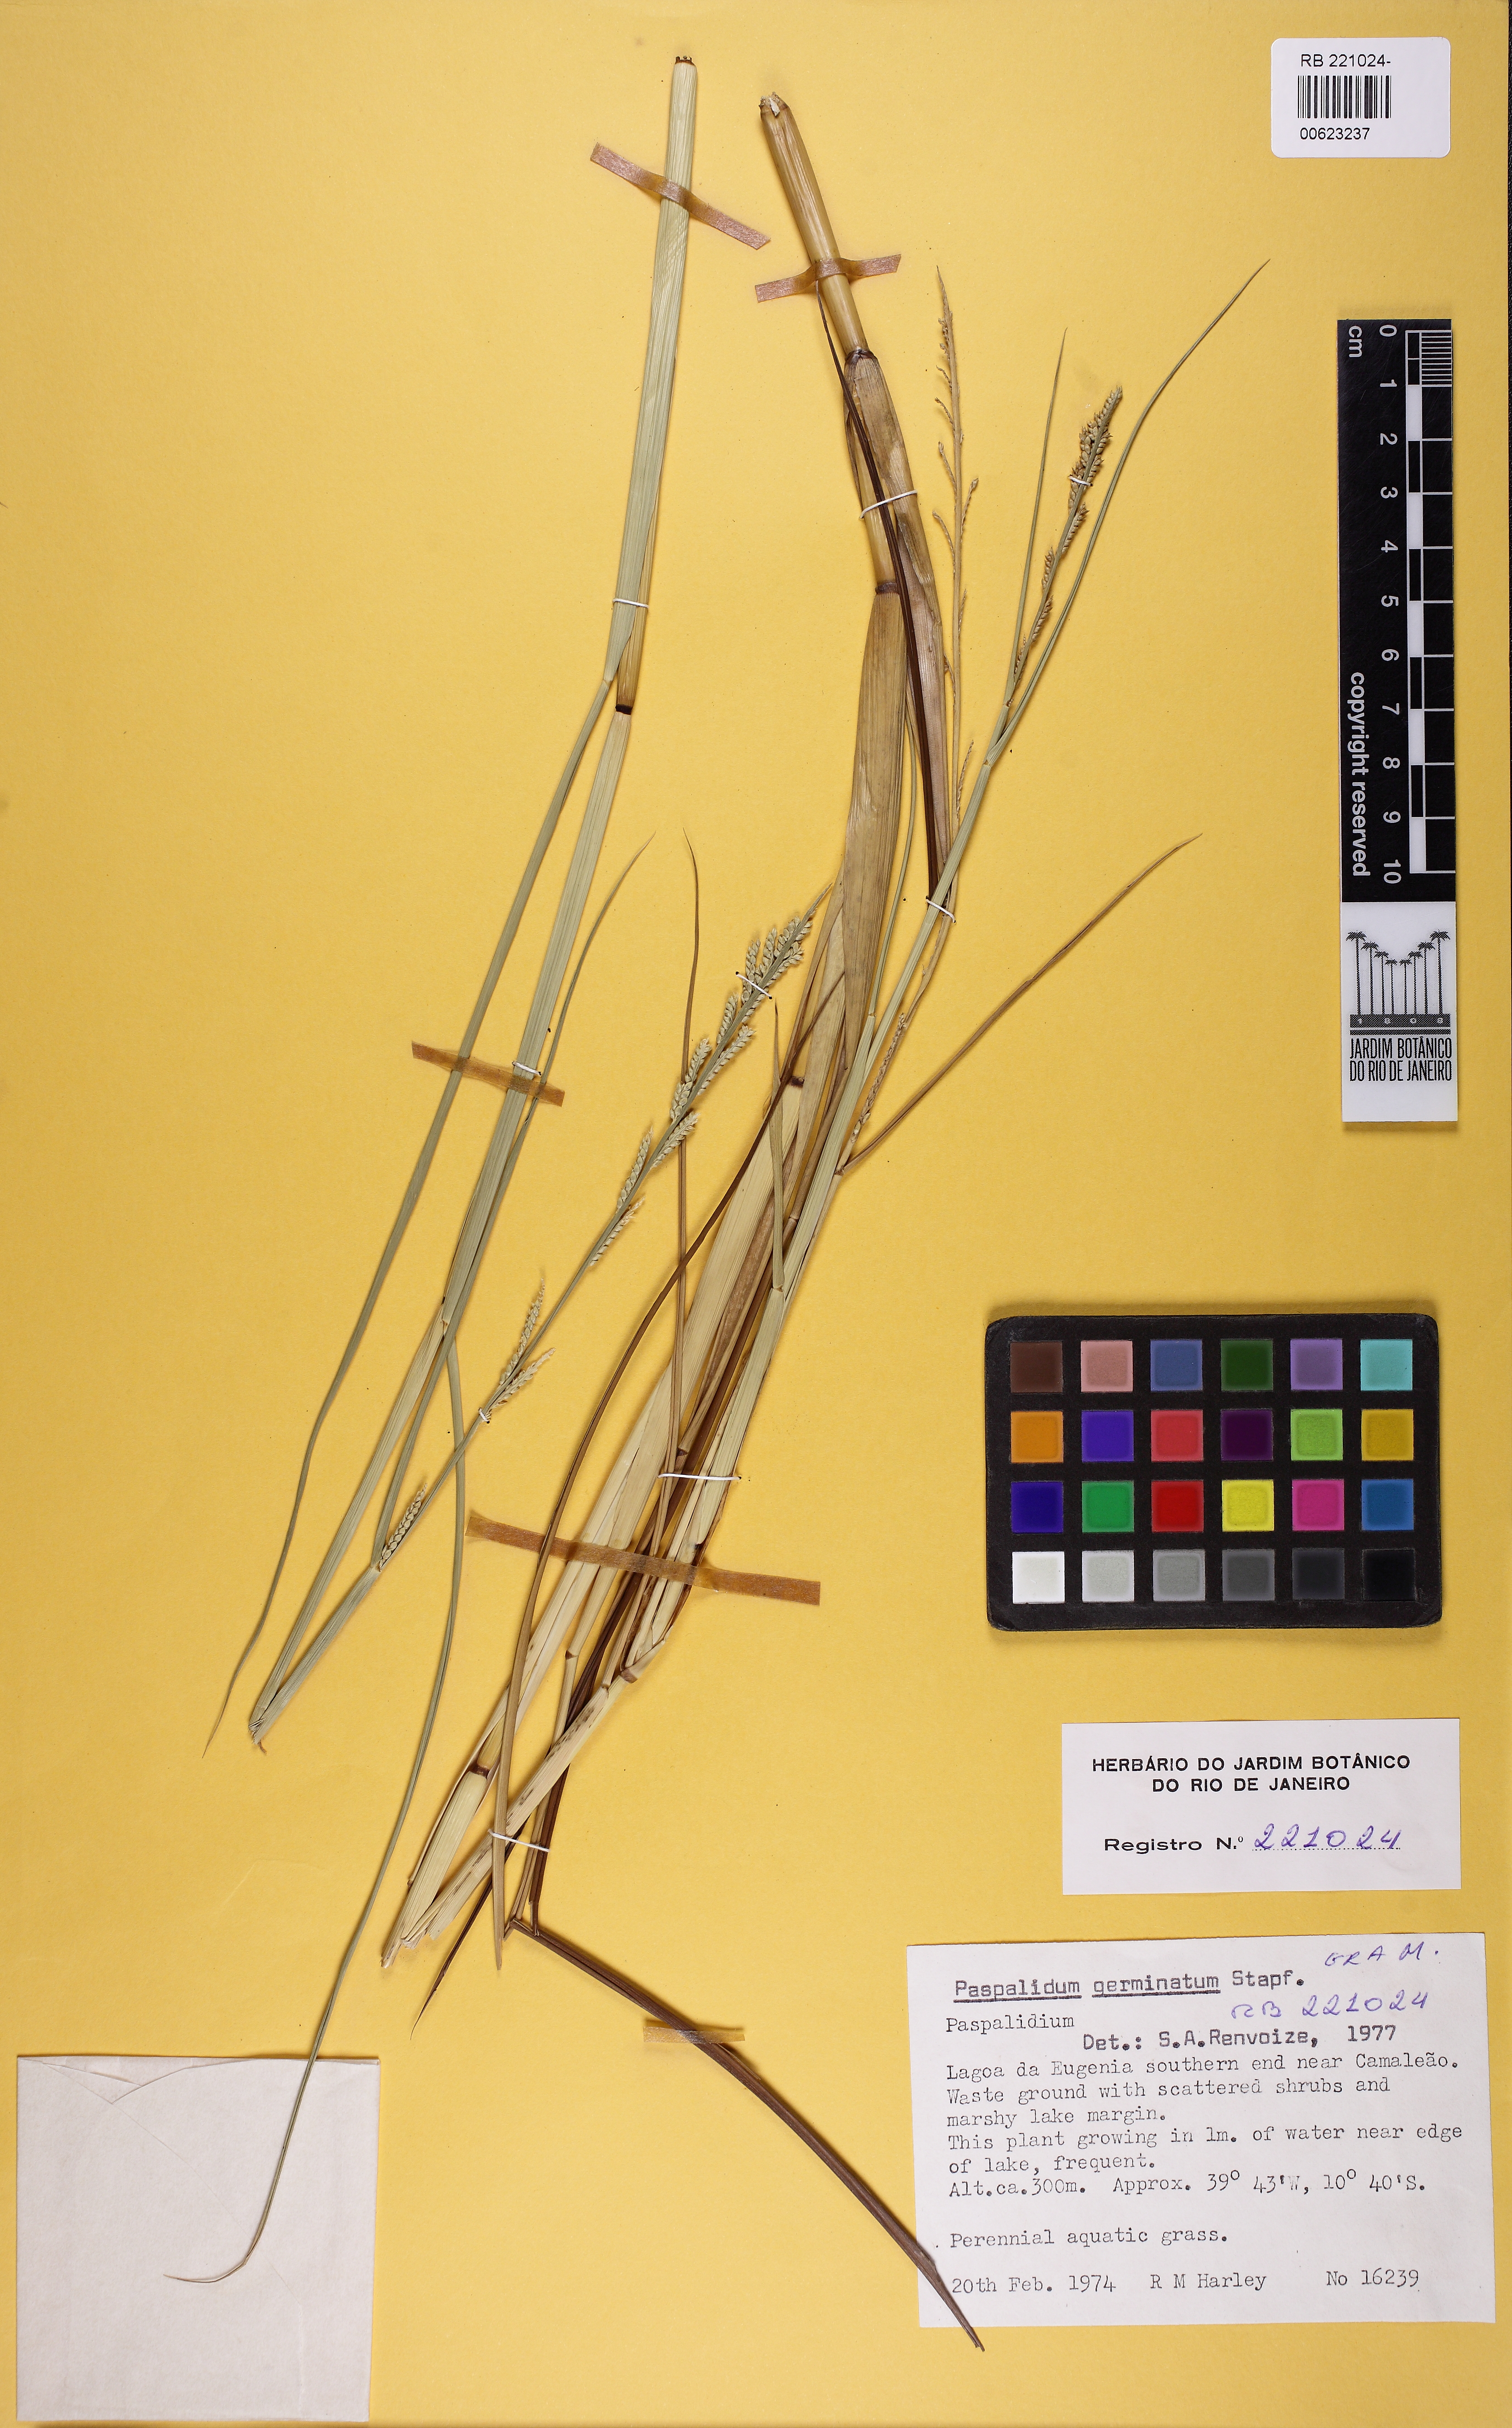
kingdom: Plantae
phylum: Tracheophyta
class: Liliopsida
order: Poales
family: Poaceae
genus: Setaria
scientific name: Setaria geminata
